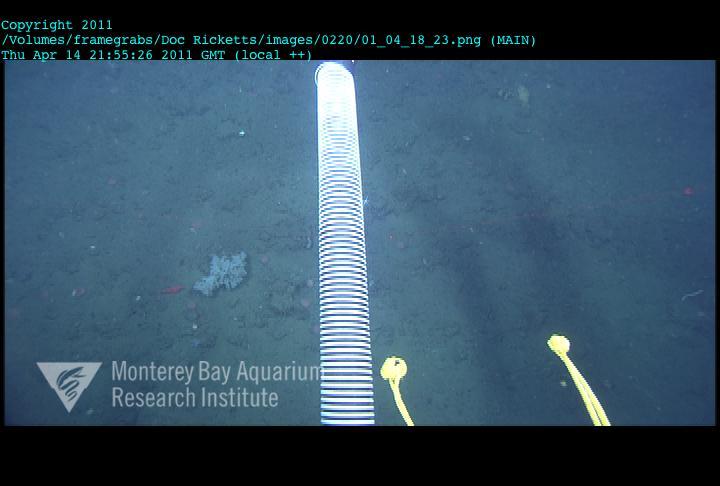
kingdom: Animalia
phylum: Porifera
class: Hexactinellida
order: Sceptrulophora
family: Tretodictyidae
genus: Sclerothamnopsis
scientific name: Sclerothamnopsis compressa
